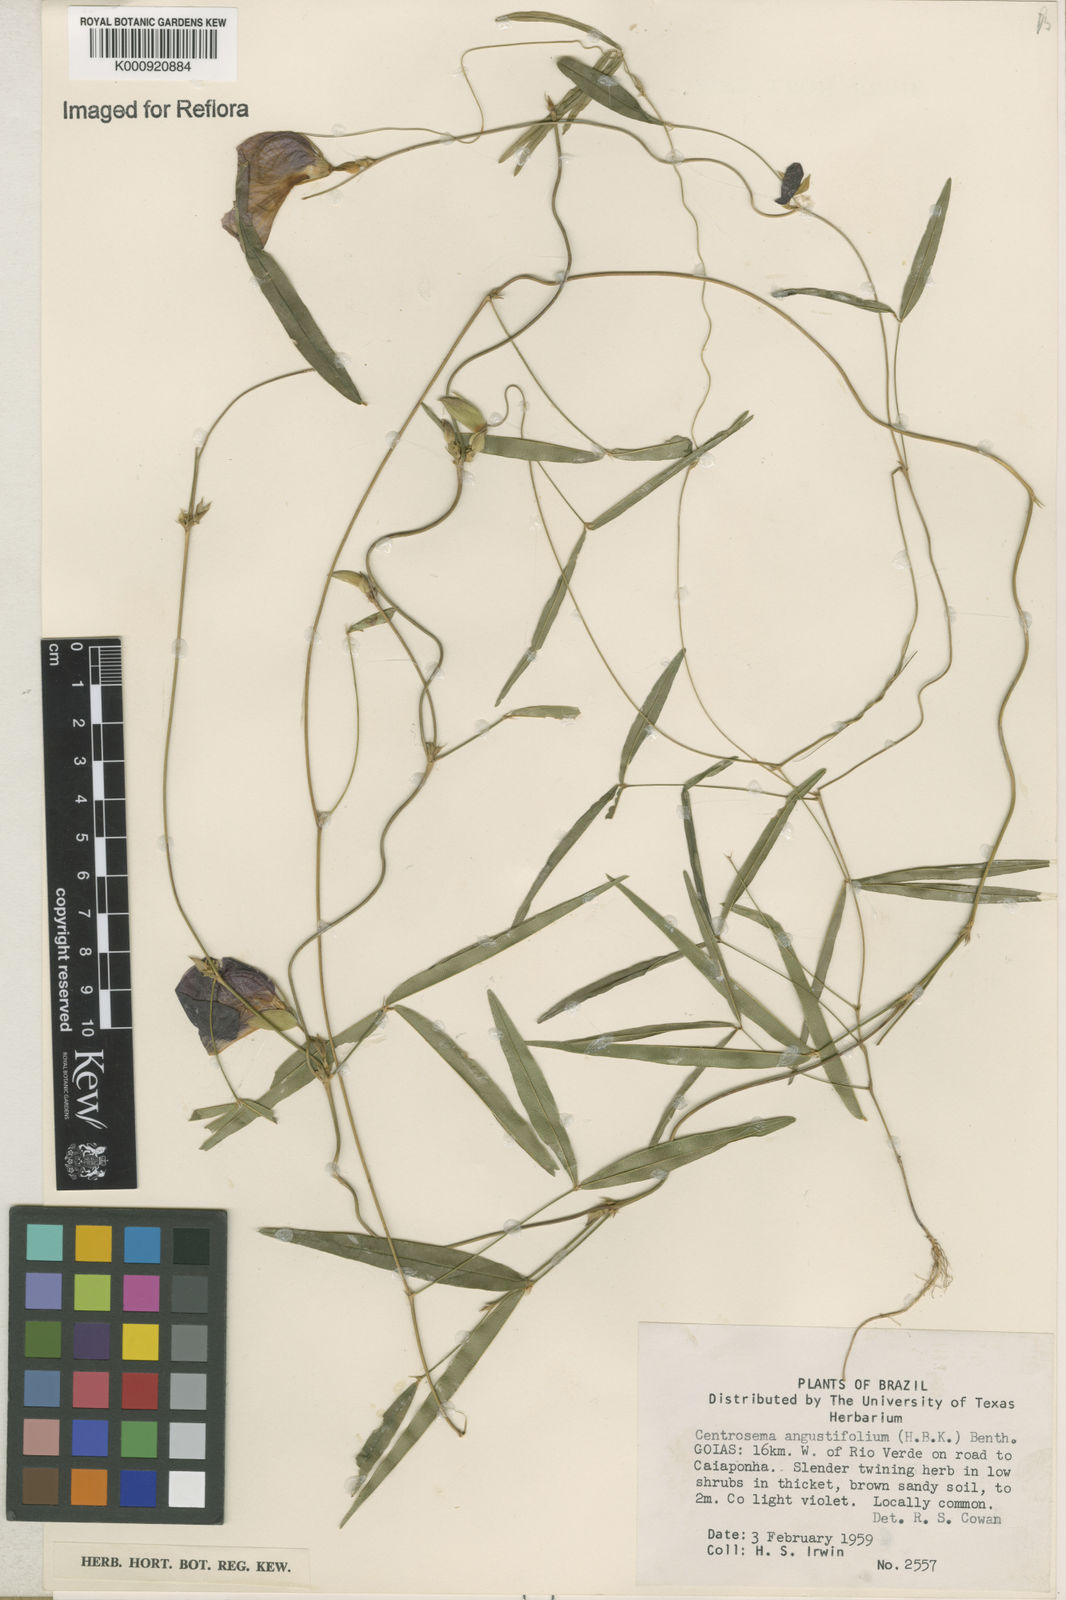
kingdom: Plantae
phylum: Tracheophyta
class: Magnoliopsida
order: Fabales
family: Fabaceae
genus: Centrosema
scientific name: Centrosema
